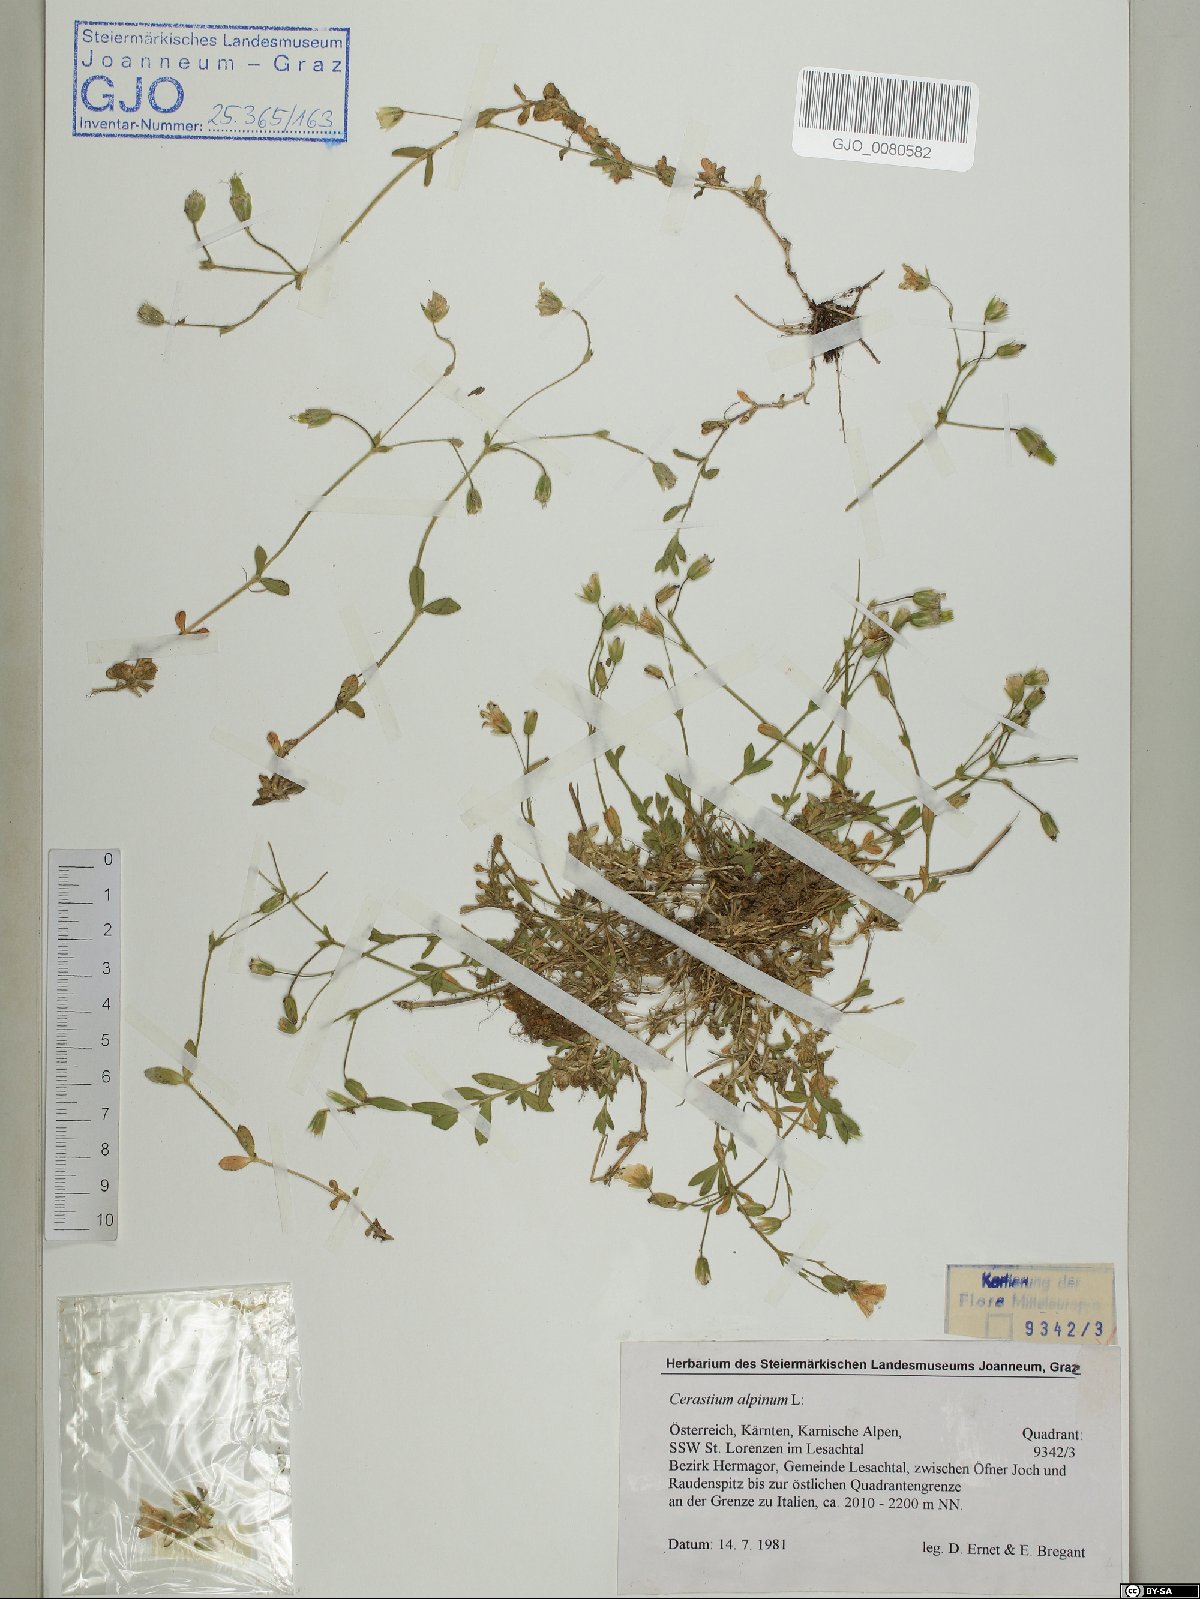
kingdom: Plantae
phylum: Tracheophyta
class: Magnoliopsida
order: Caryophyllales
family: Caryophyllaceae
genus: Cerastium
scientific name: Cerastium alpinum
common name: Alpine mouse-ear
